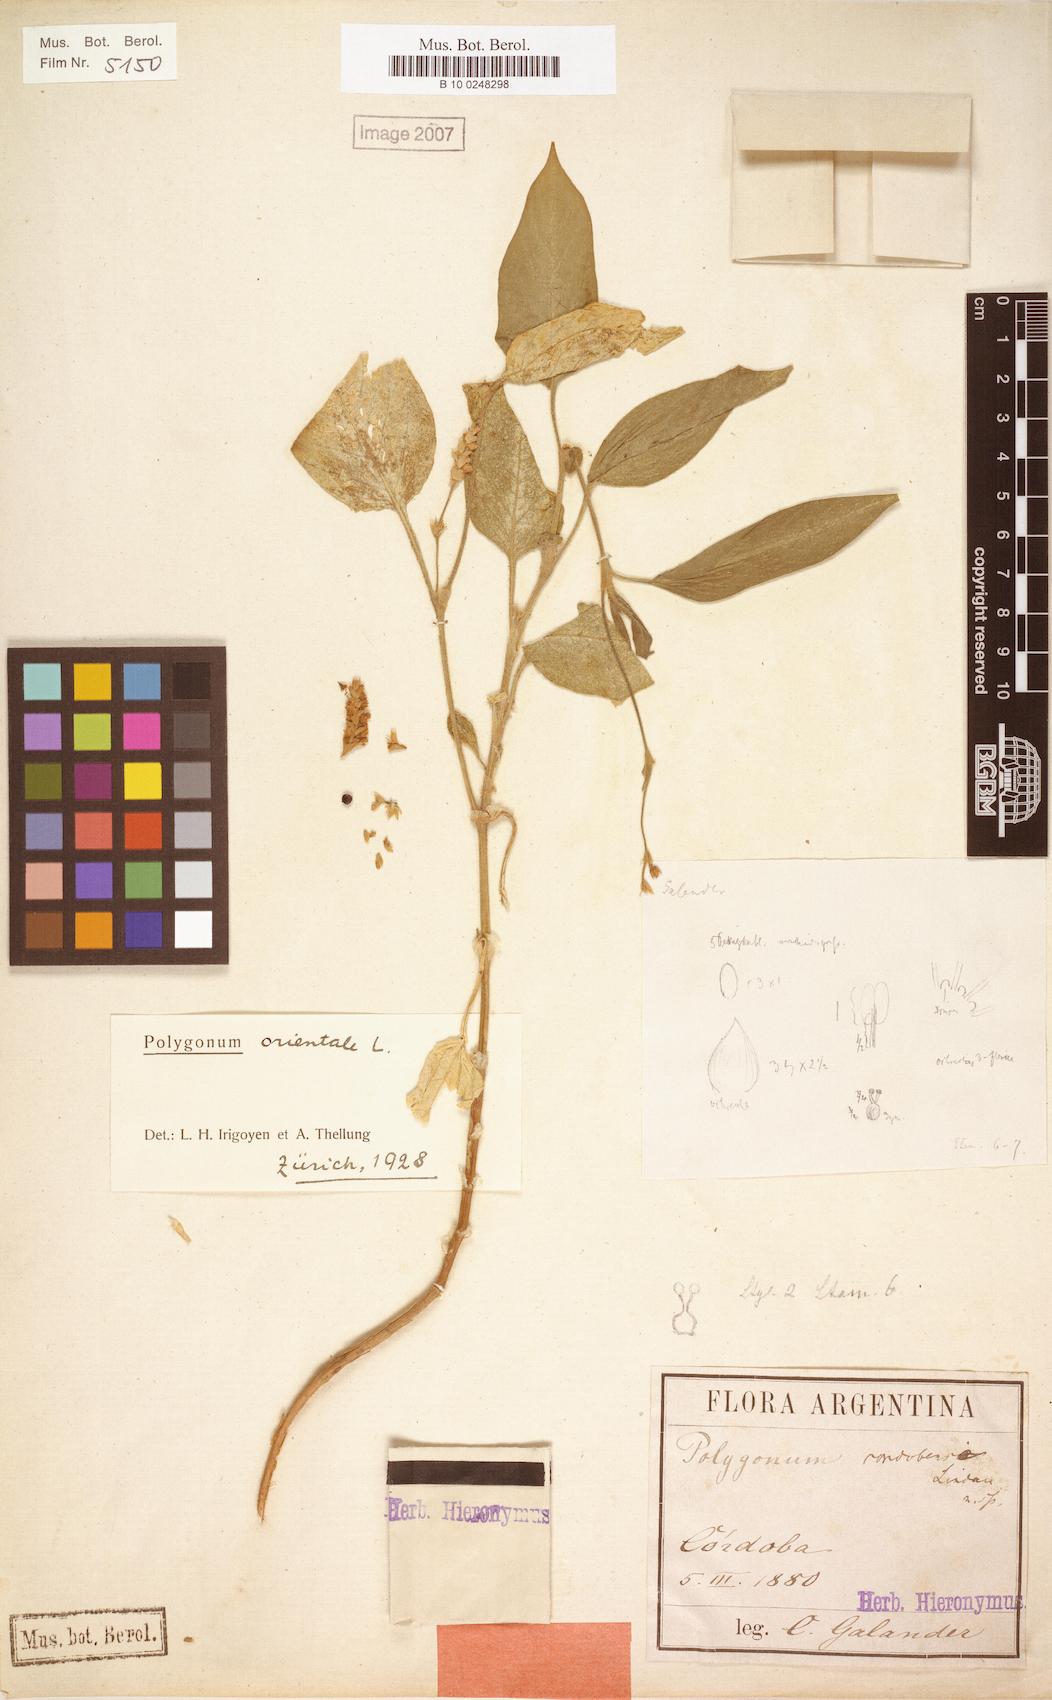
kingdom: Plantae
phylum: Tracheophyta
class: Magnoliopsida
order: Caryophyllales
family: Polygonaceae
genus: Persicaria
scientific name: Persicaria orientalis
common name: Kiss-me-over-the-garden-gate
